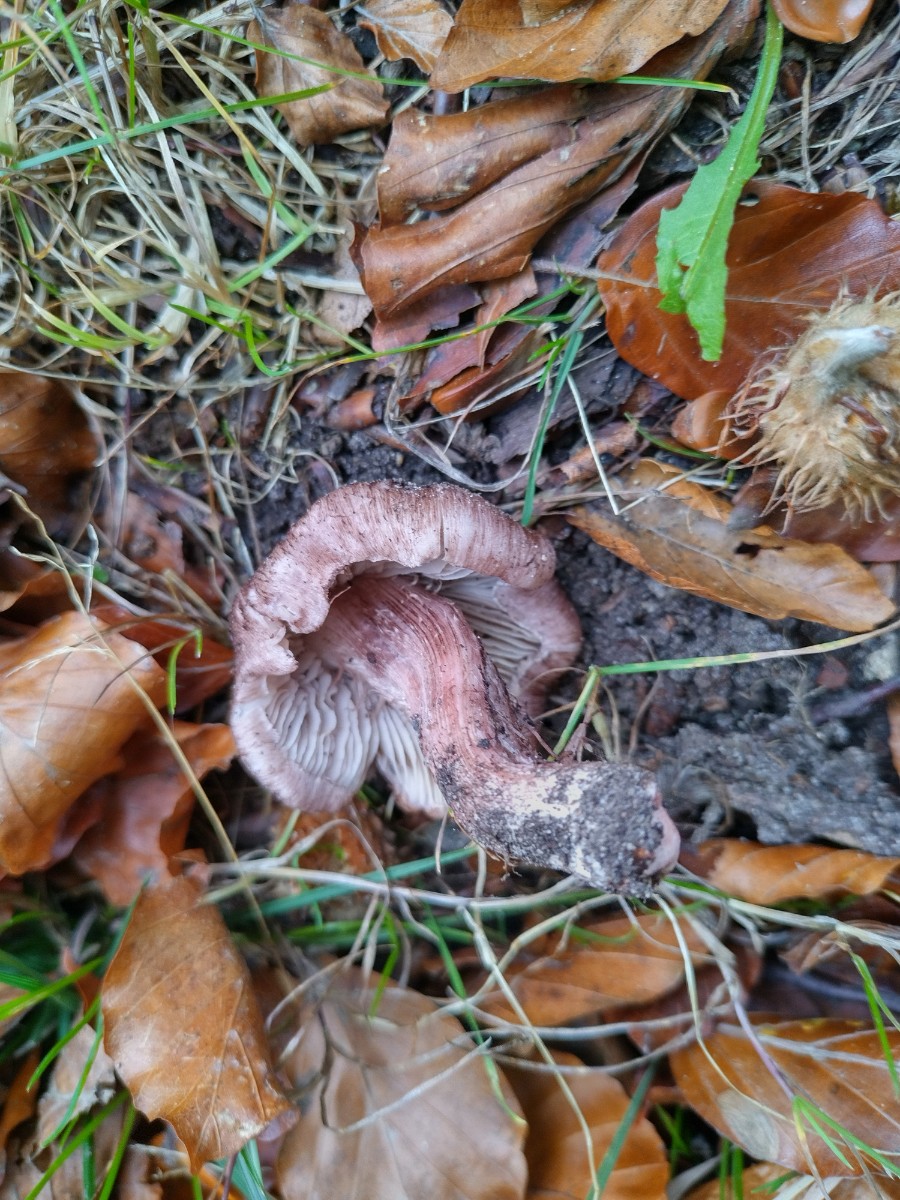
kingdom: Fungi
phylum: Basidiomycota
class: Agaricomycetes
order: Agaricales
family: Inocybaceae
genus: Inosperma
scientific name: Inosperma adaequatum
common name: vinrød trævlhat
